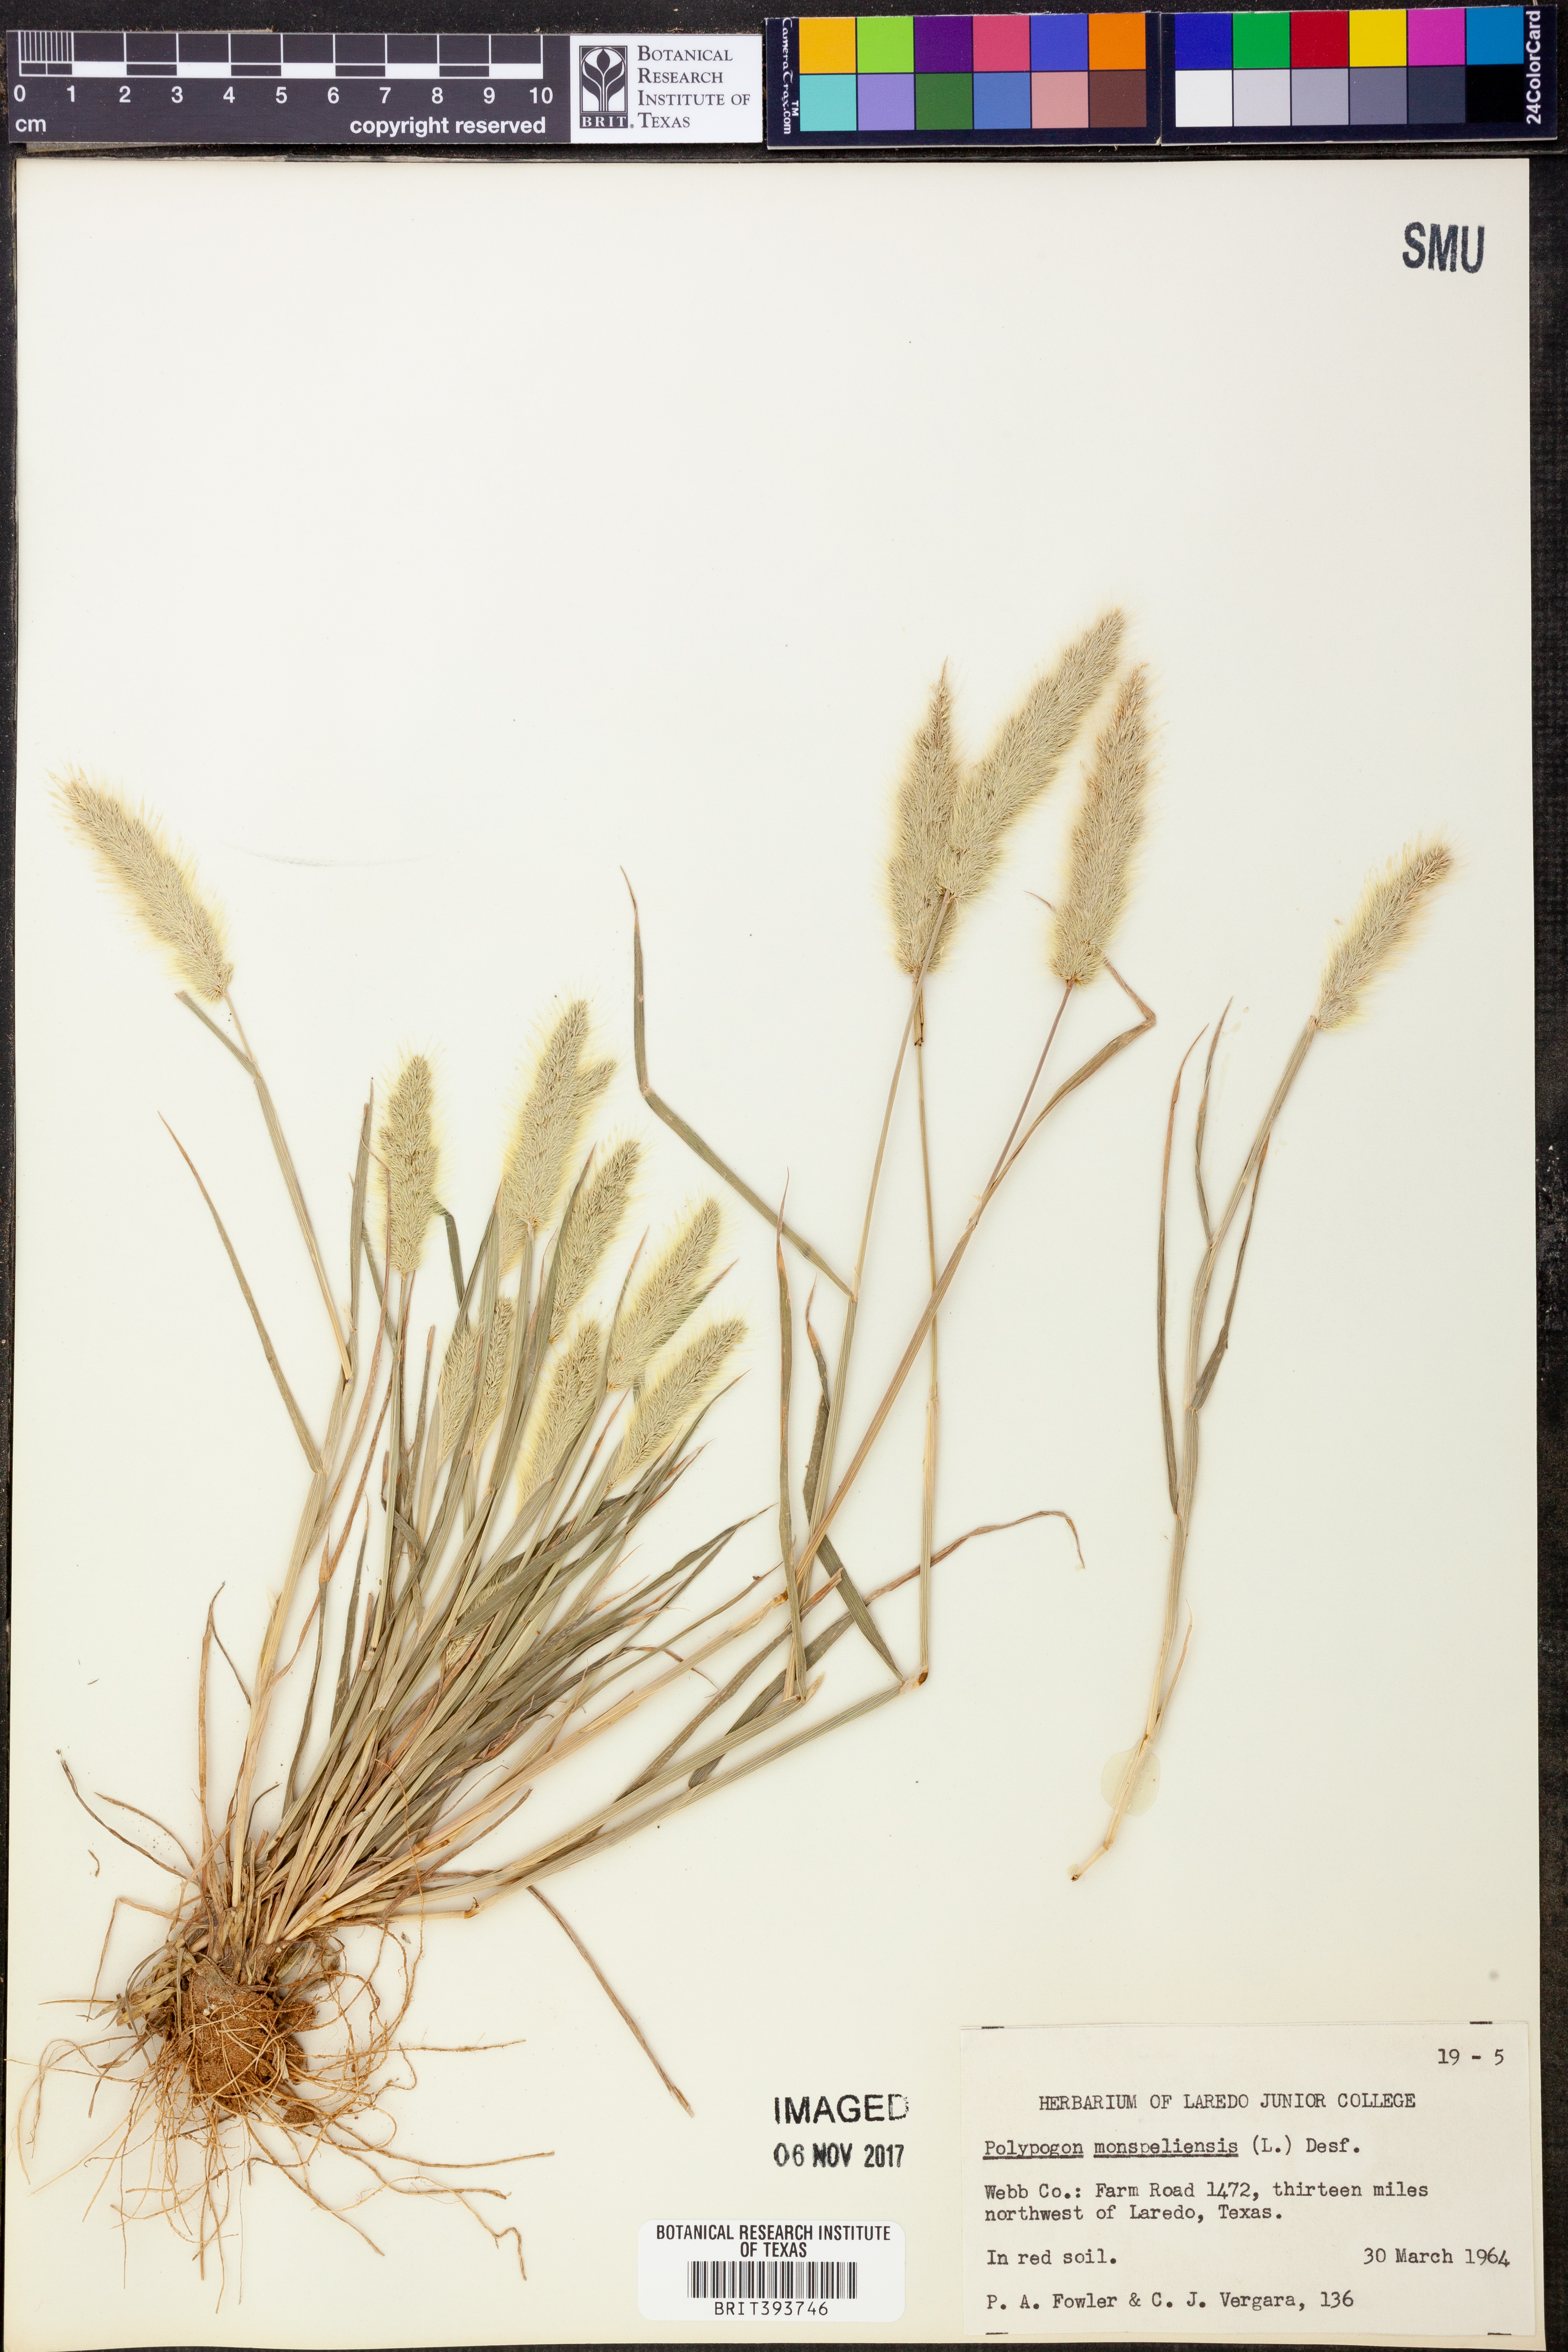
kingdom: Plantae
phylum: Tracheophyta
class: Liliopsida
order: Poales
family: Poaceae
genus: Polypogon
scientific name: Polypogon monspeliensis
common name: Annual rabbitsfoot grass
